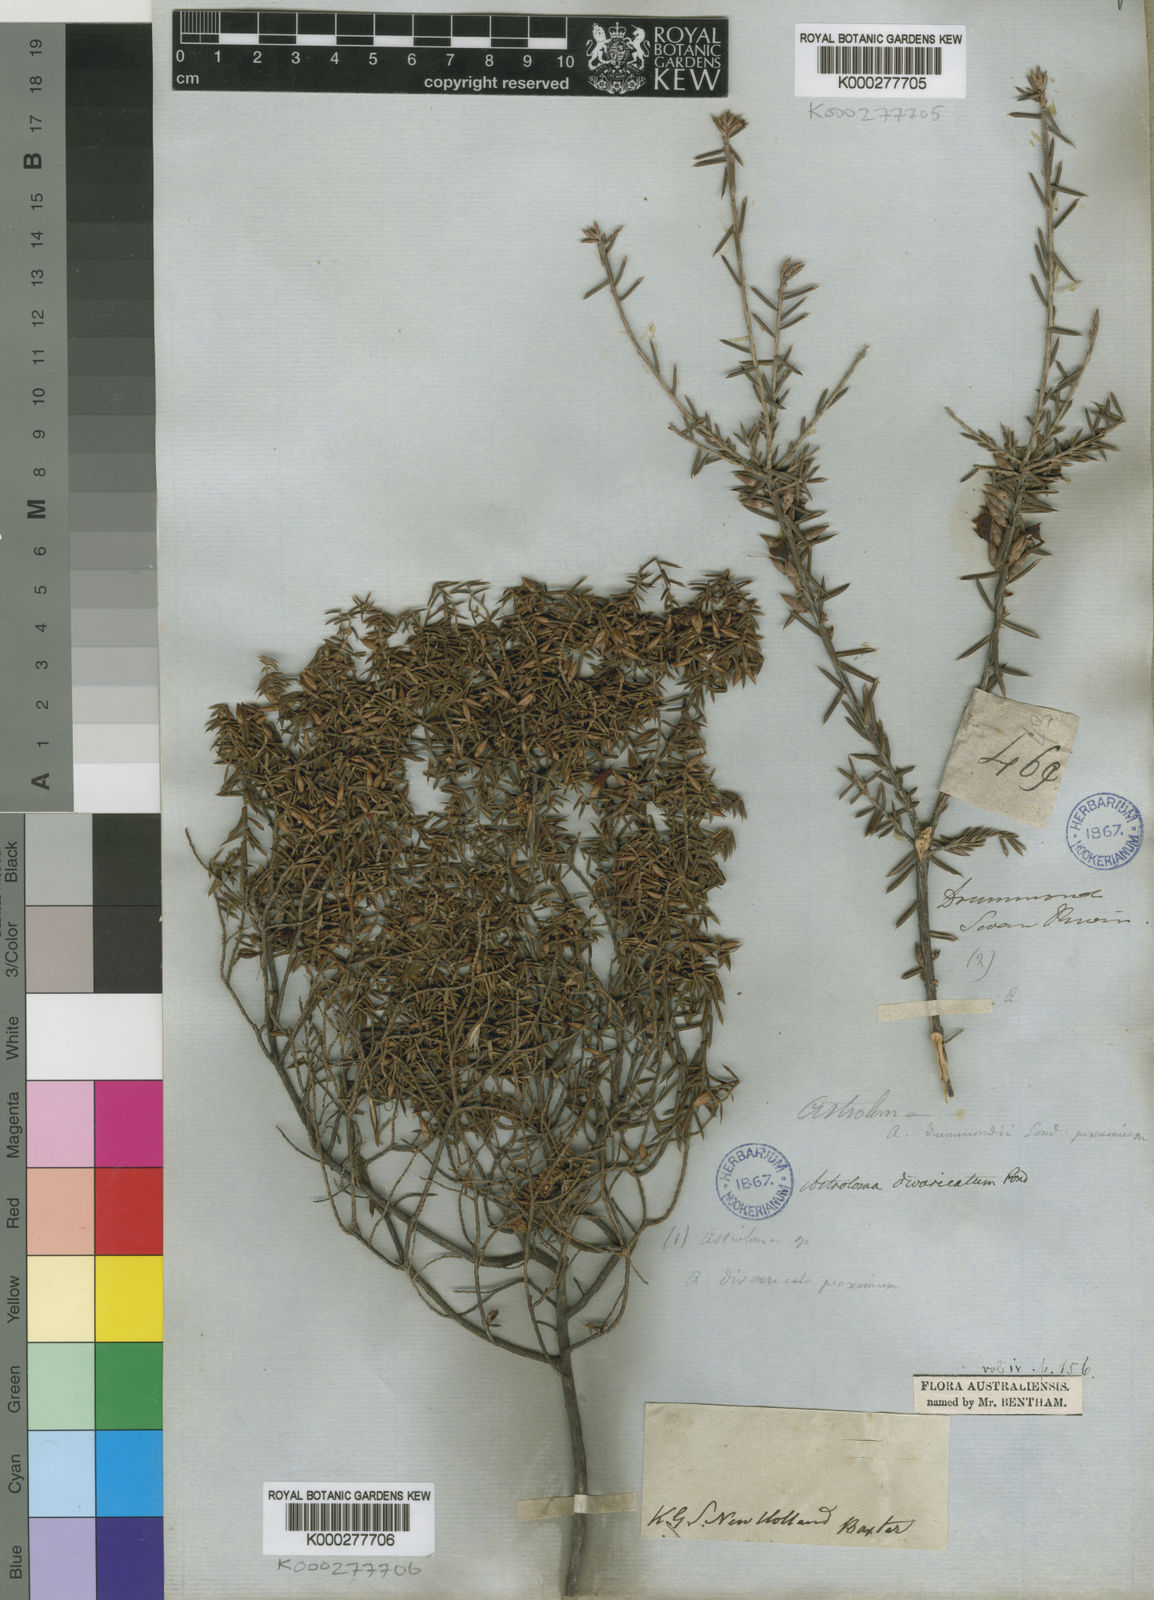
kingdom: Plantae
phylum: Tracheophyta
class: Magnoliopsida
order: Ericales
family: Ericaceae
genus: Styphelia
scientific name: Styphelia epacridis
